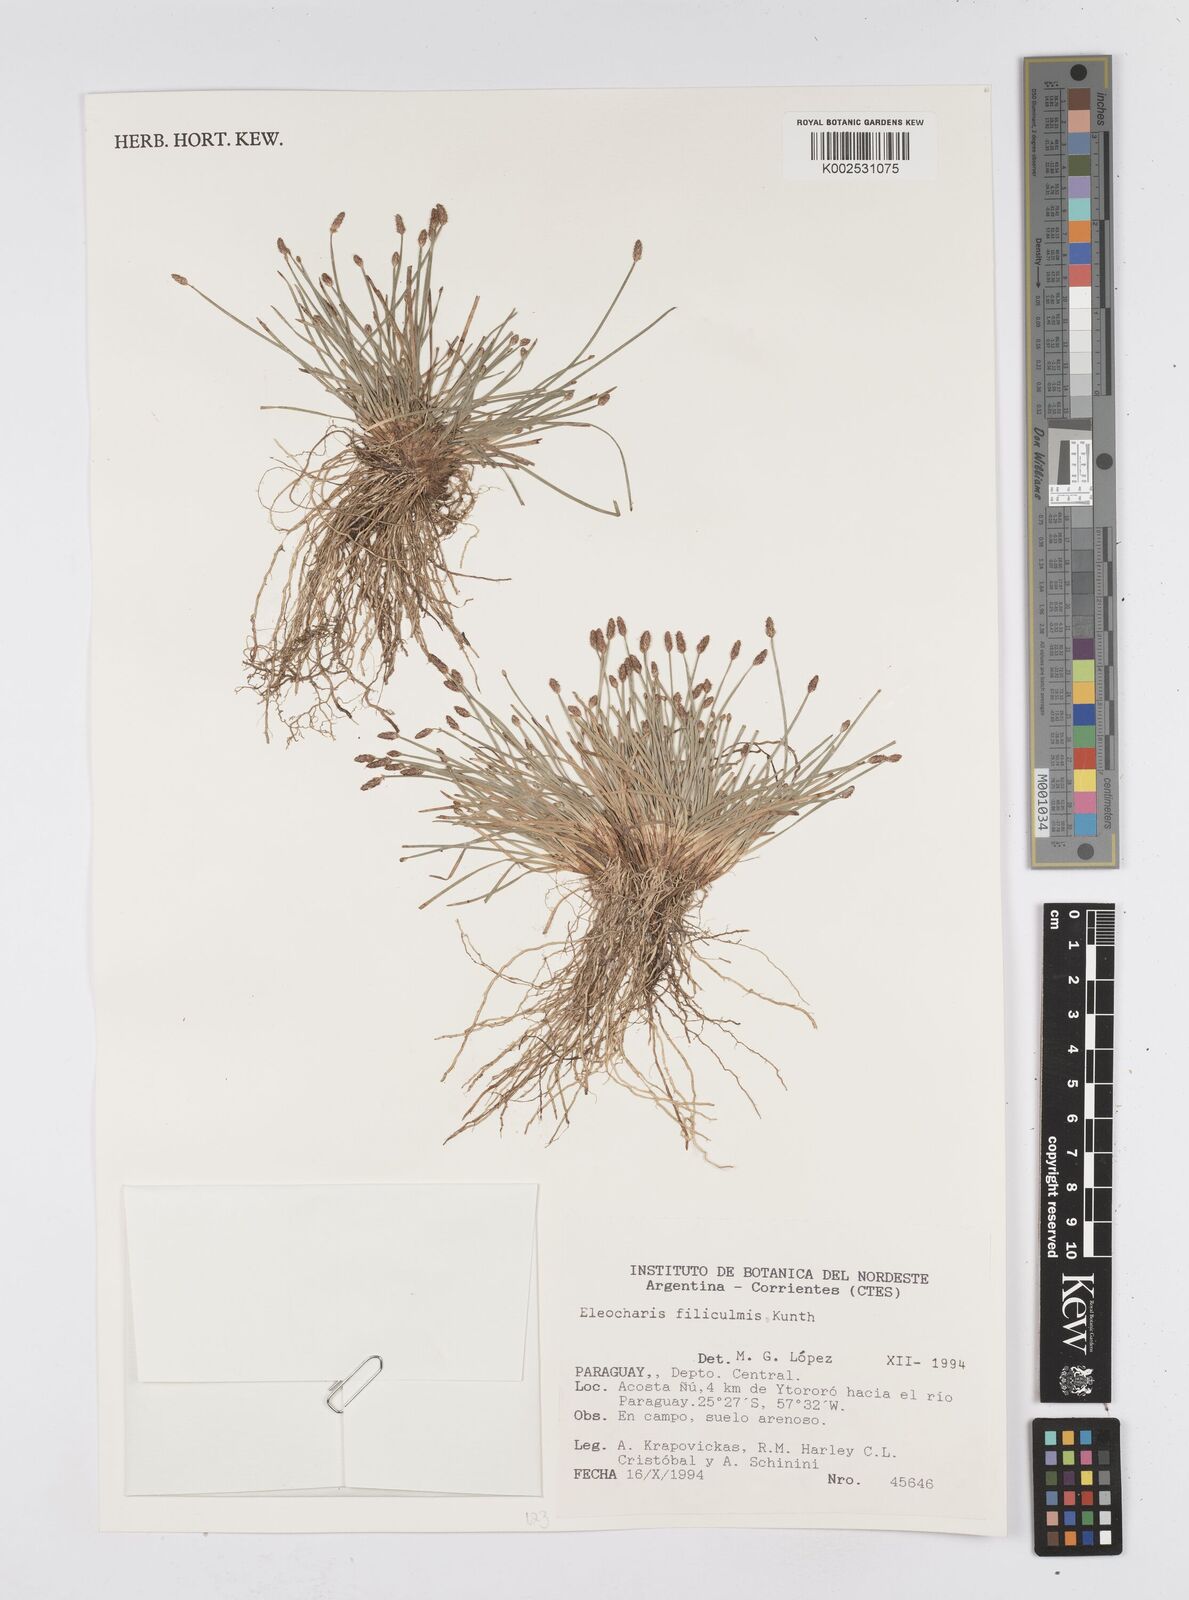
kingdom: Plantae
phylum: Tracheophyta
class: Liliopsida
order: Poales
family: Cyperaceae
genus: Eleocharis
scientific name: Eleocharis filiculmis
